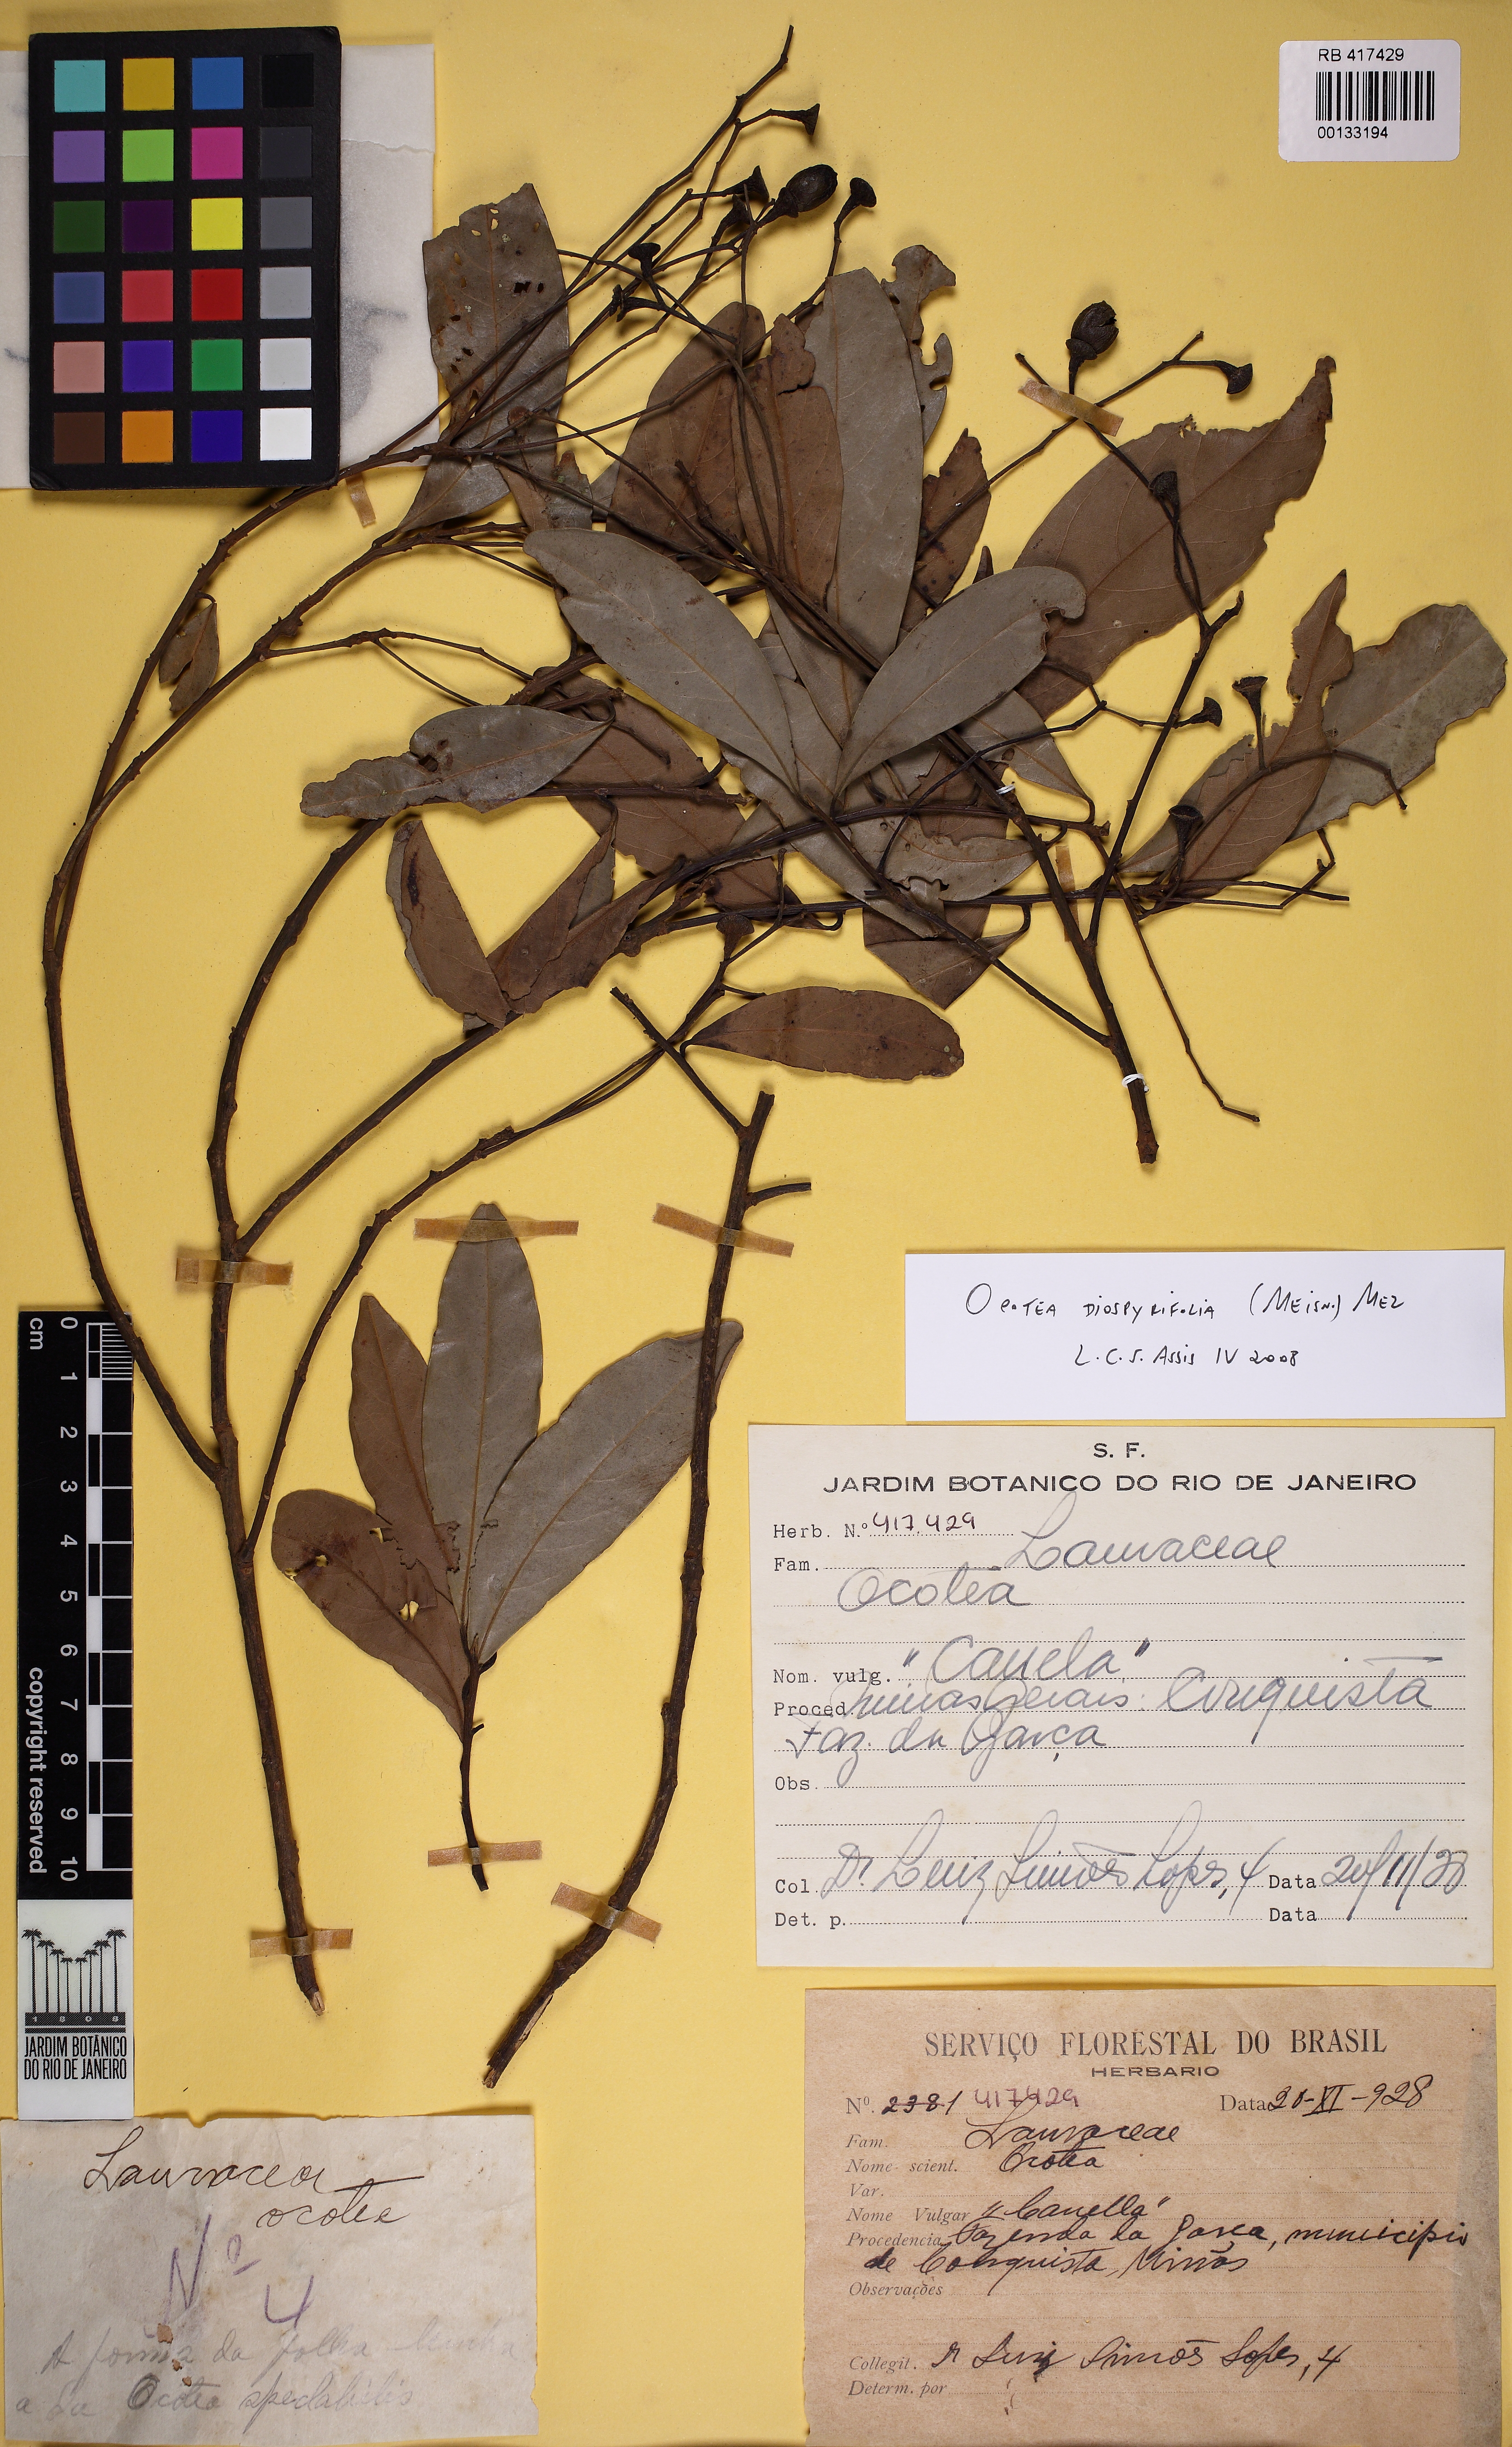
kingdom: Plantae
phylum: Tracheophyta
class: Magnoliopsida
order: Laurales
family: Lauraceae
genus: Ocotea
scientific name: Ocotea diospyrifolia
